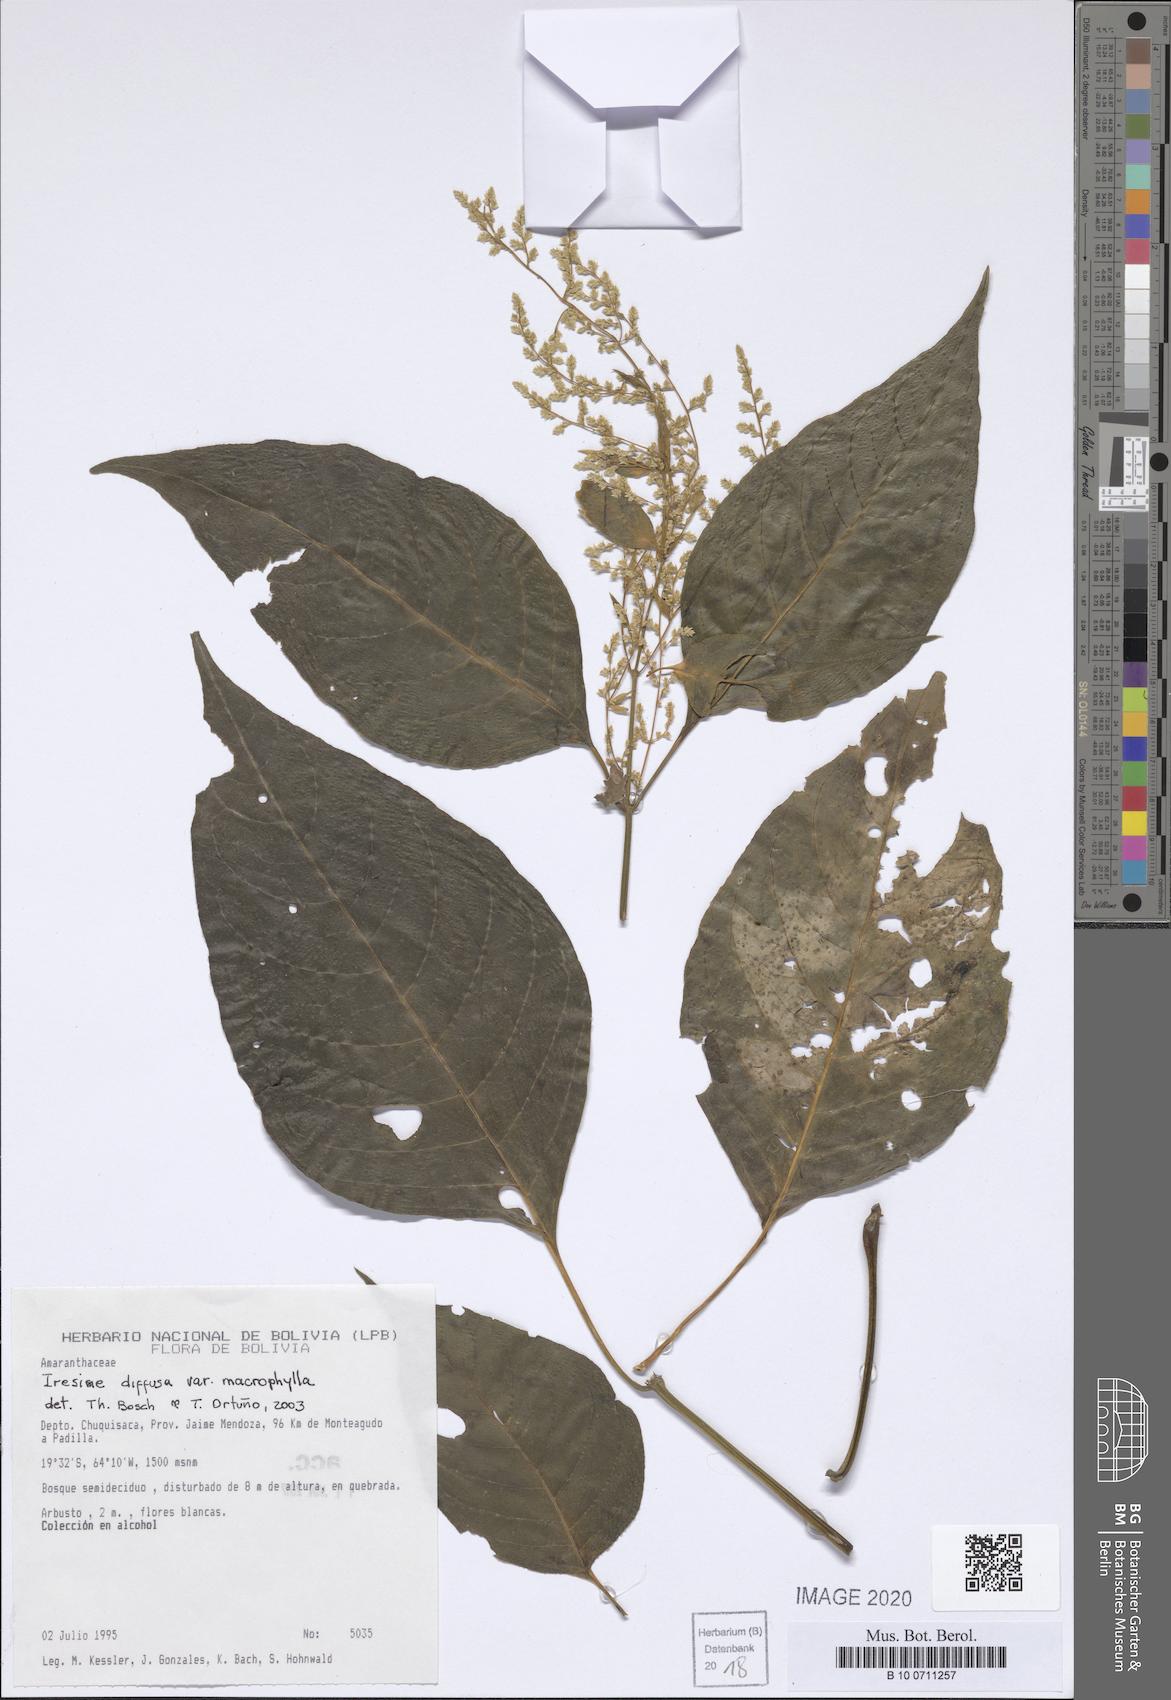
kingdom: Plantae
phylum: Tracheophyta
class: Magnoliopsida
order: Caryophyllales
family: Amaranthaceae
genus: Iresine
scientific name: Iresine diffusa
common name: Juba's-bush
